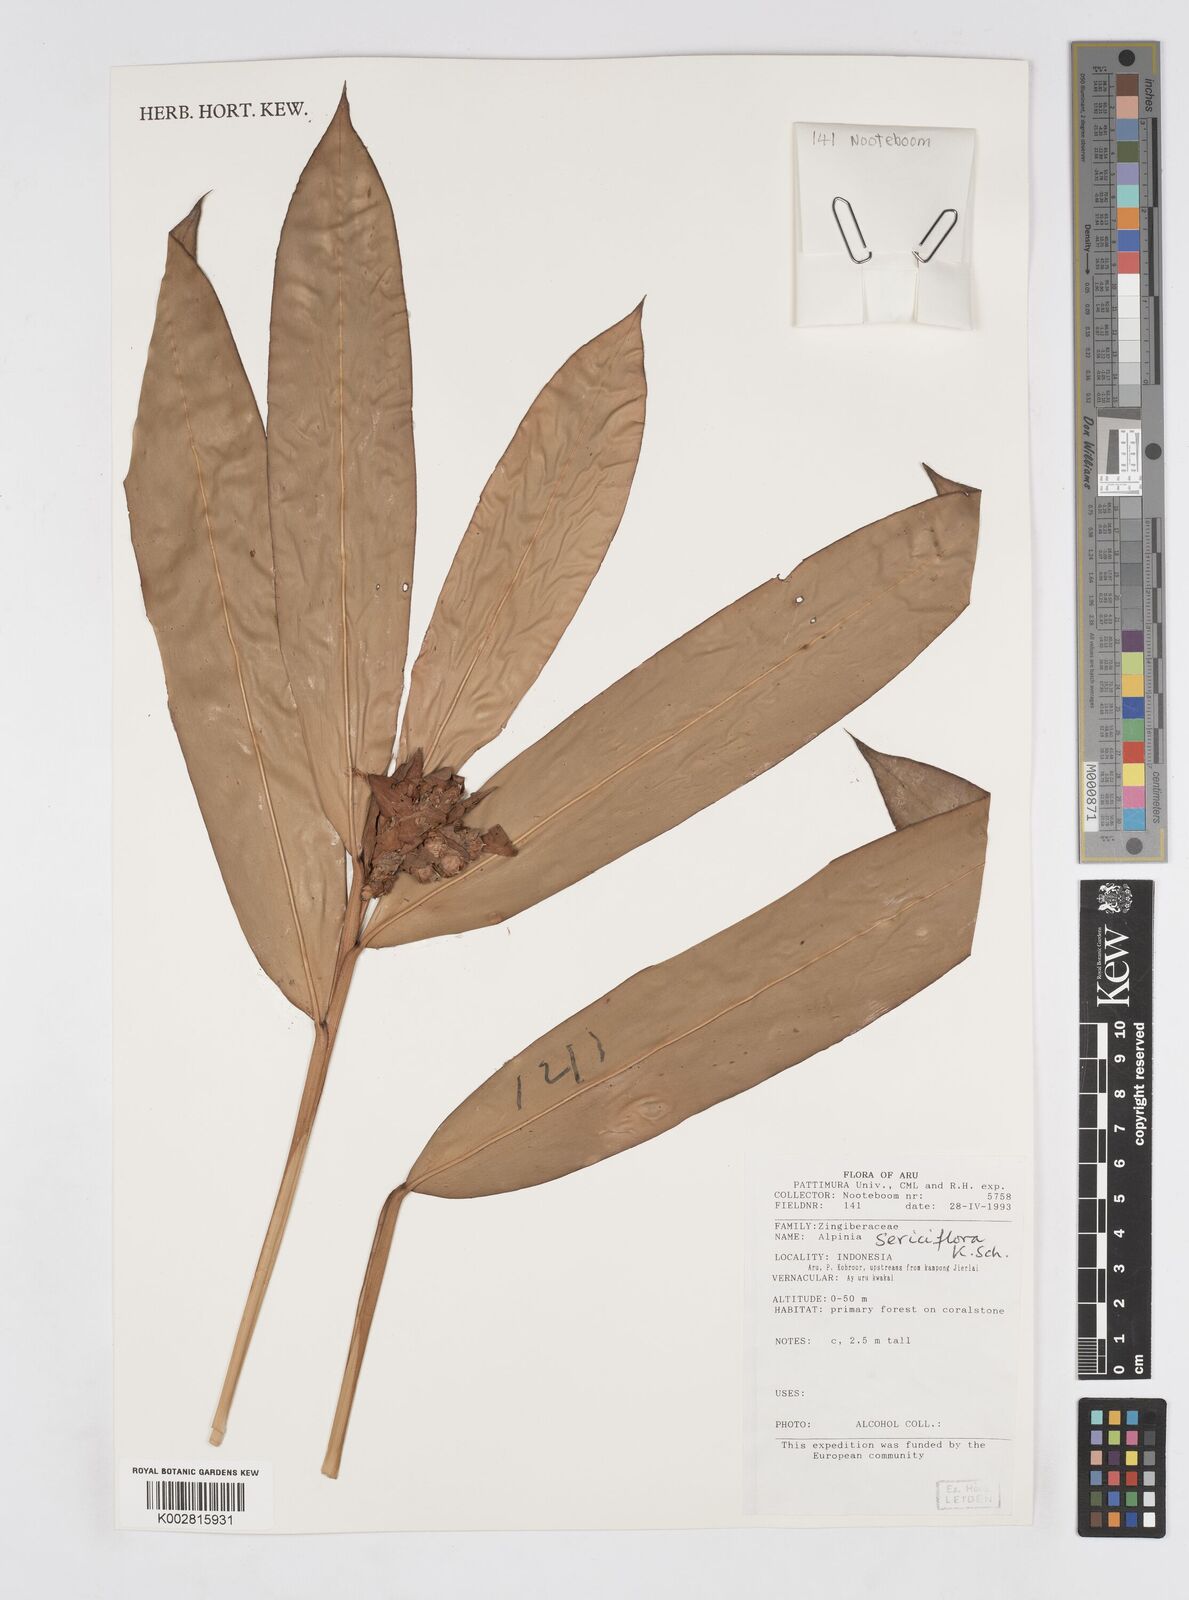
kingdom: Plantae
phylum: Tracheophyta
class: Liliopsida
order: Zingiberales
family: Zingiberaceae
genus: Alpinia
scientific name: Alpinia sericiflora
